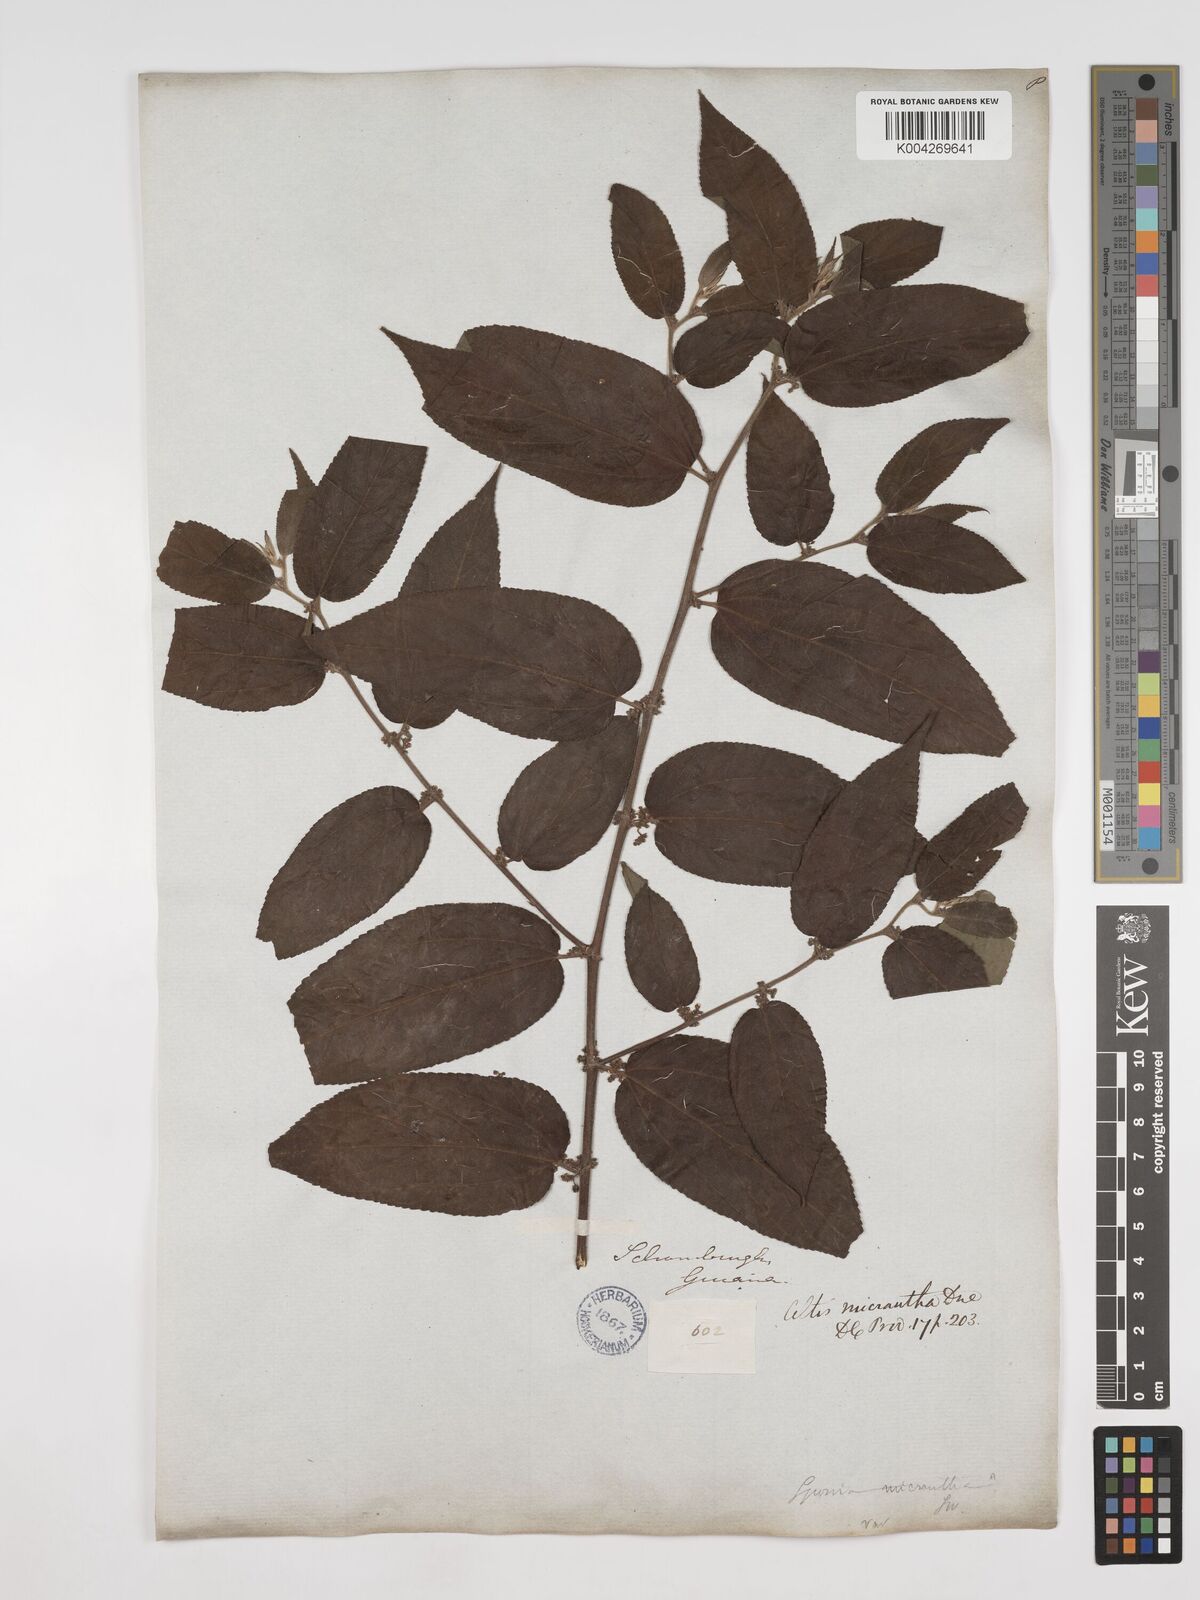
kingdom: Plantae
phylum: Tracheophyta
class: Magnoliopsida
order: Rosales
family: Cannabaceae
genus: Trema
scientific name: Trema micranthum
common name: Jamaican nettletree
